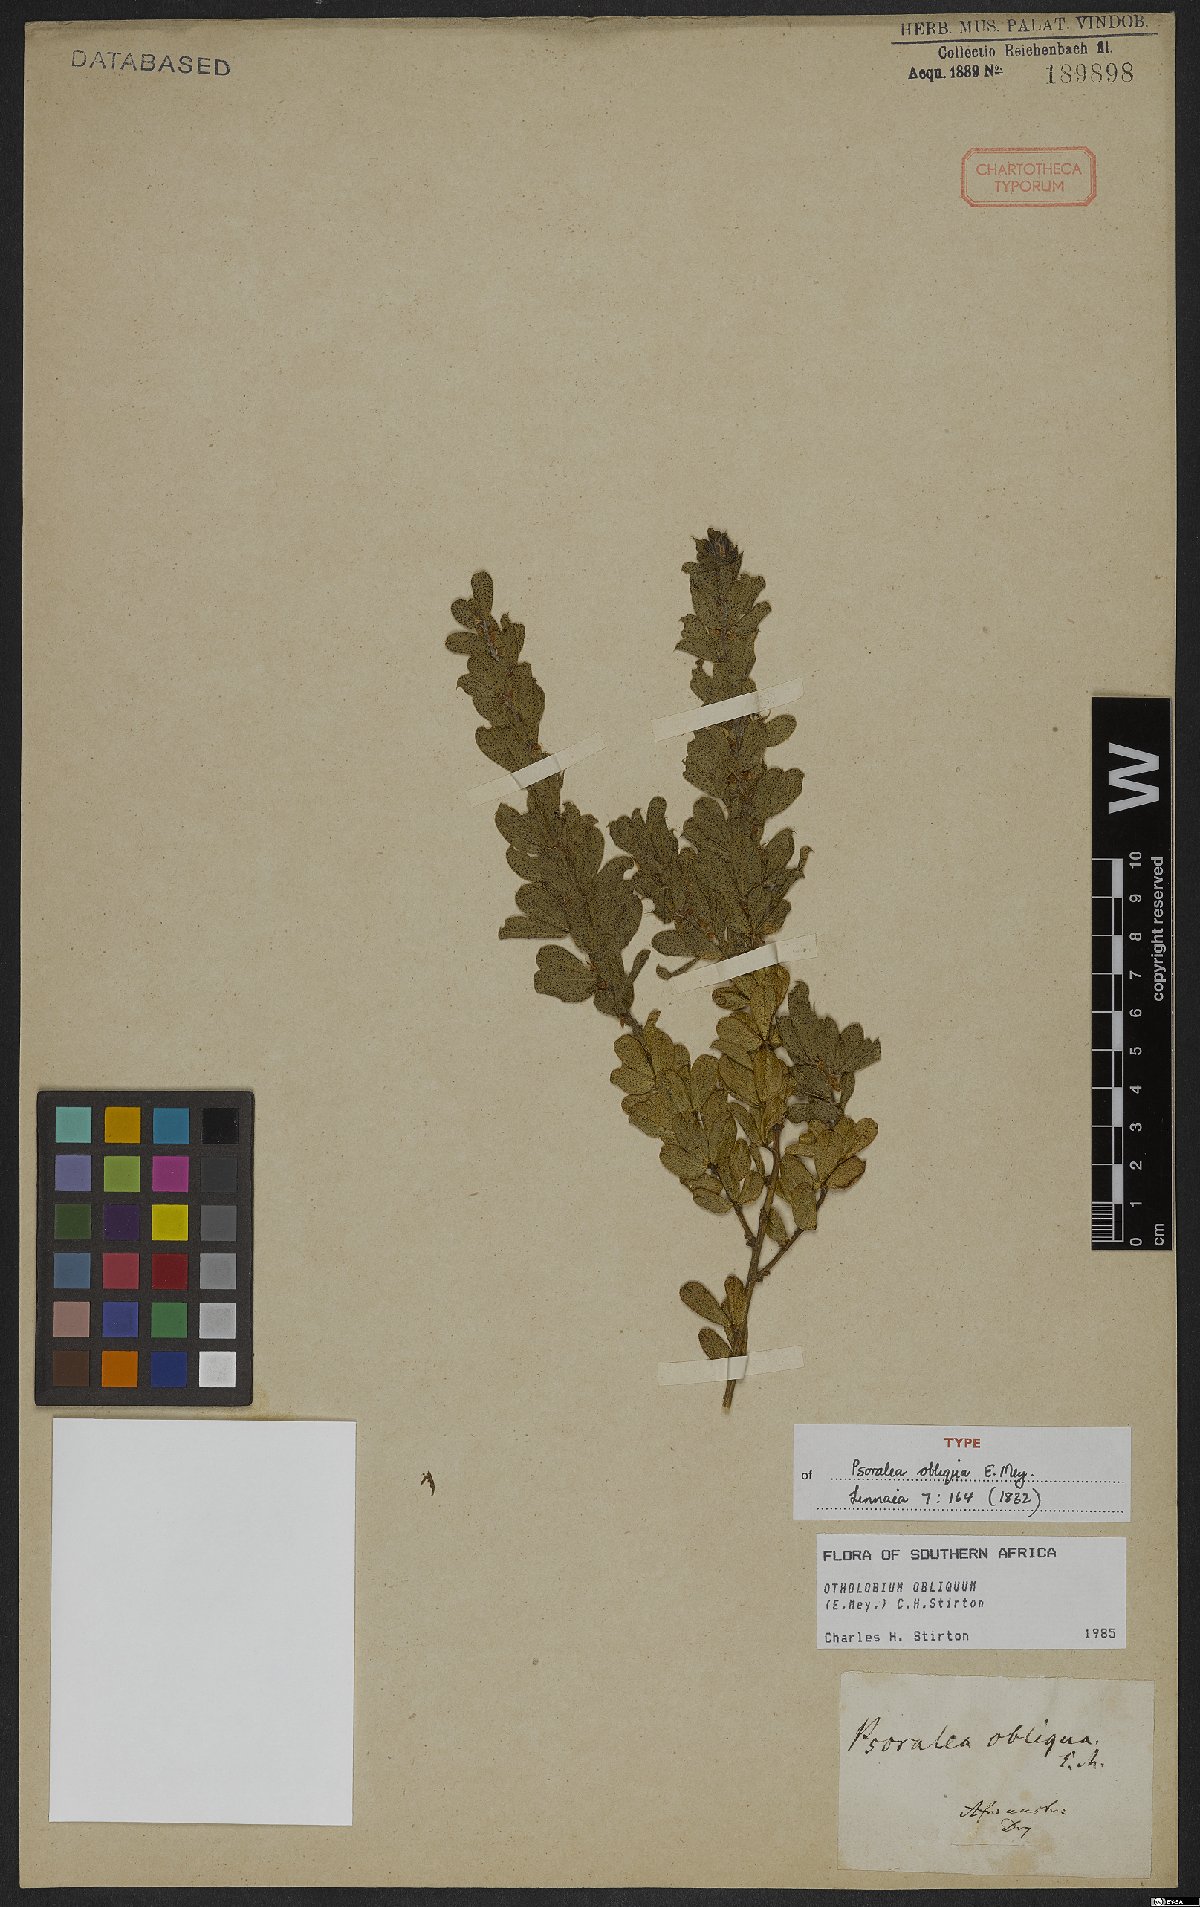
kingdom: Plantae
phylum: Tracheophyta
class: Magnoliopsida
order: Fabales
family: Fabaceae
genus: Psoralea
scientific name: Psoralea obliqua
